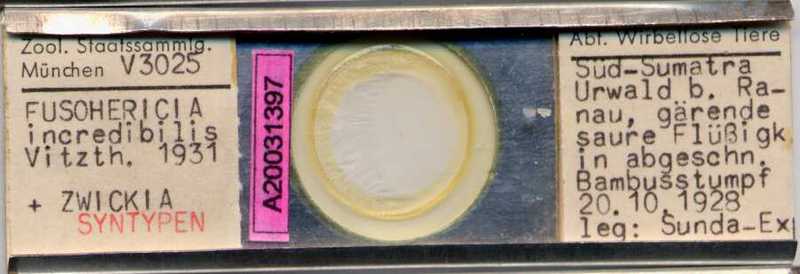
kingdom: Animalia
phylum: Arthropoda
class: Arachnida
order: Sarcoptiformes
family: Algophagidae
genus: Fusohericia
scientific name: Fusohericia incredibilis
